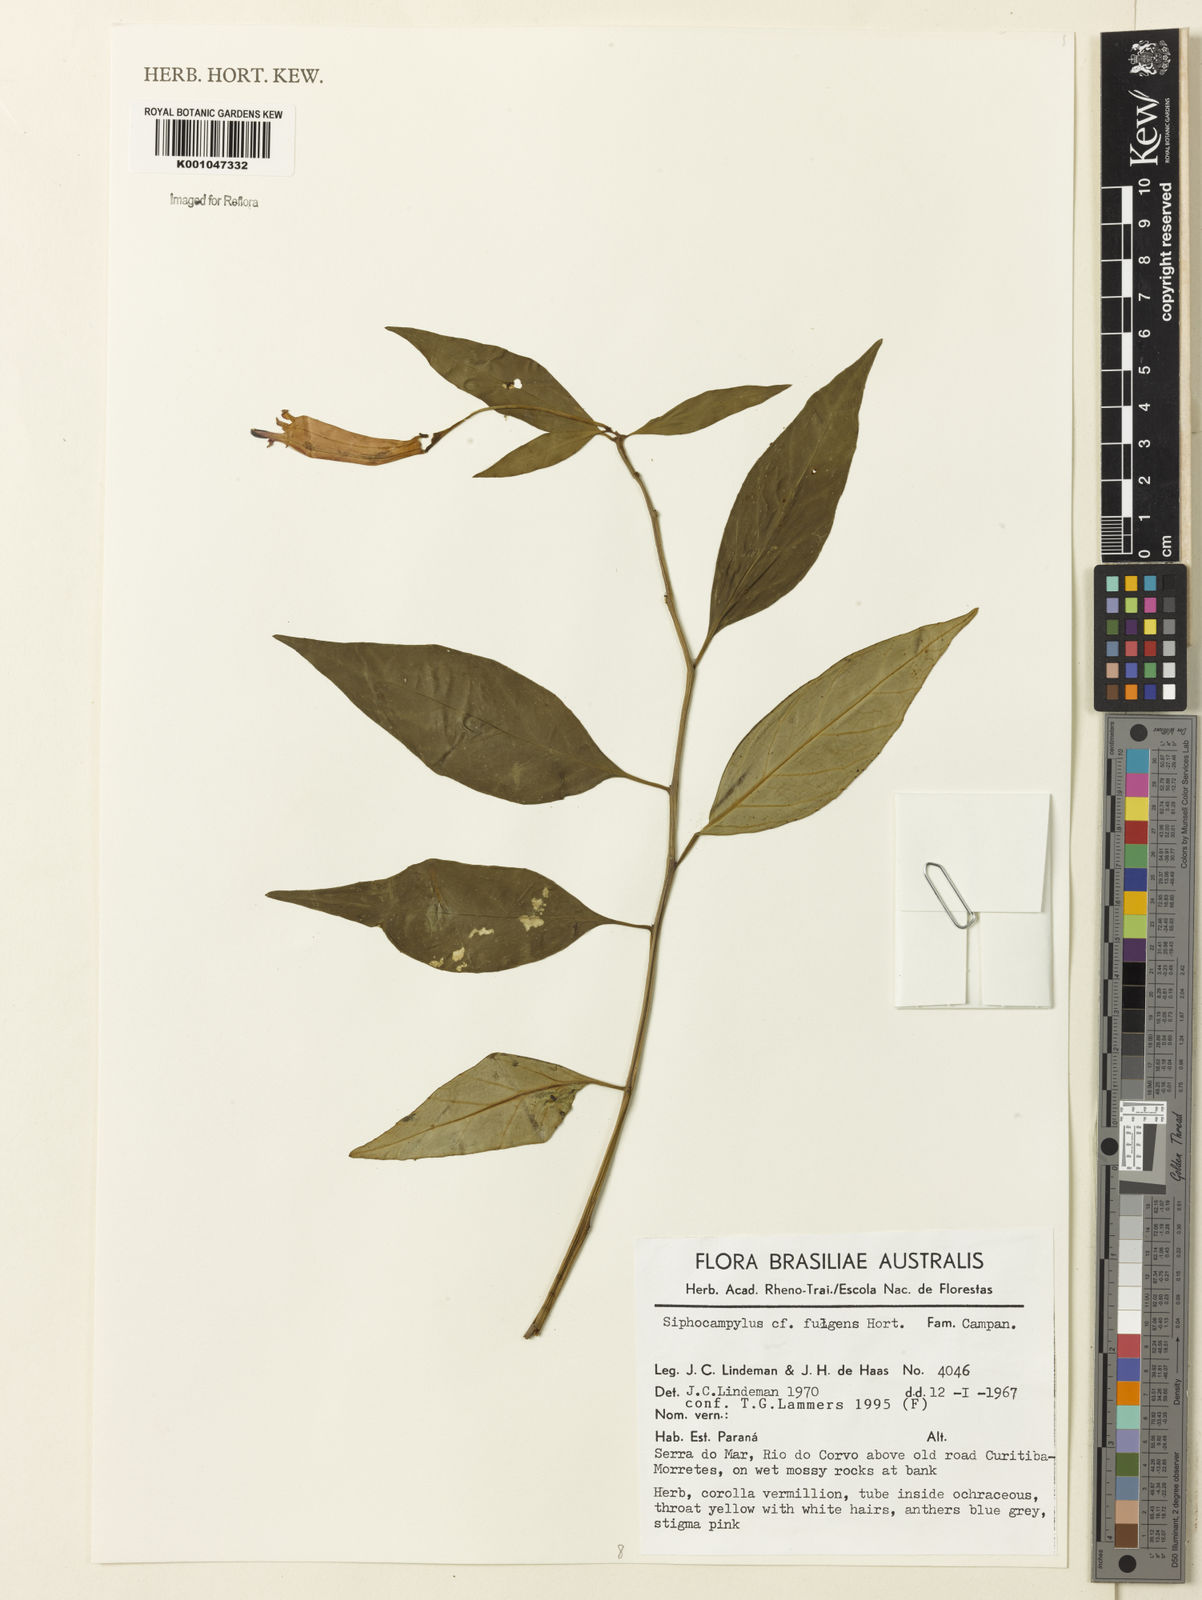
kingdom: Plantae
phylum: Tracheophyta
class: Magnoliopsida
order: Asterales
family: Campanulaceae
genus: Siphocampylus
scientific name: Siphocampylus
